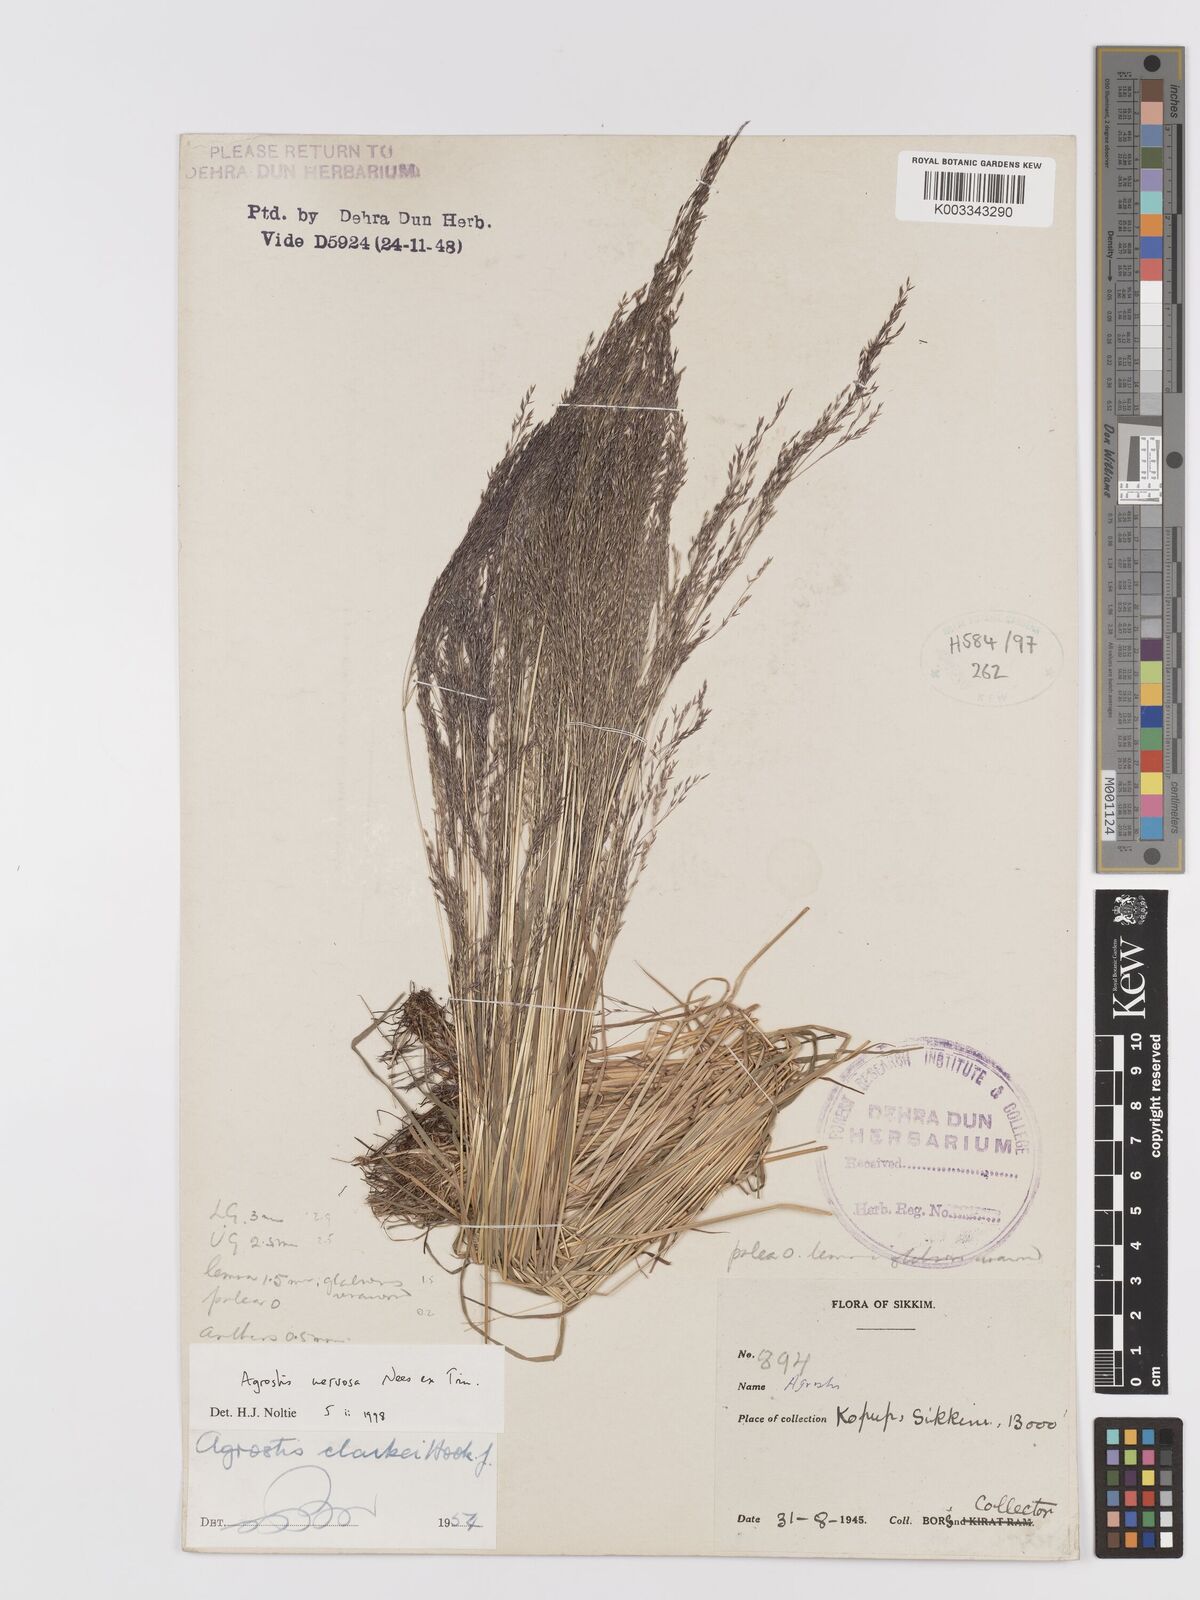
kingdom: Plantae
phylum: Tracheophyta
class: Liliopsida
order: Poales
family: Poaceae
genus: Agrostis
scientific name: Agrostis nervosa
